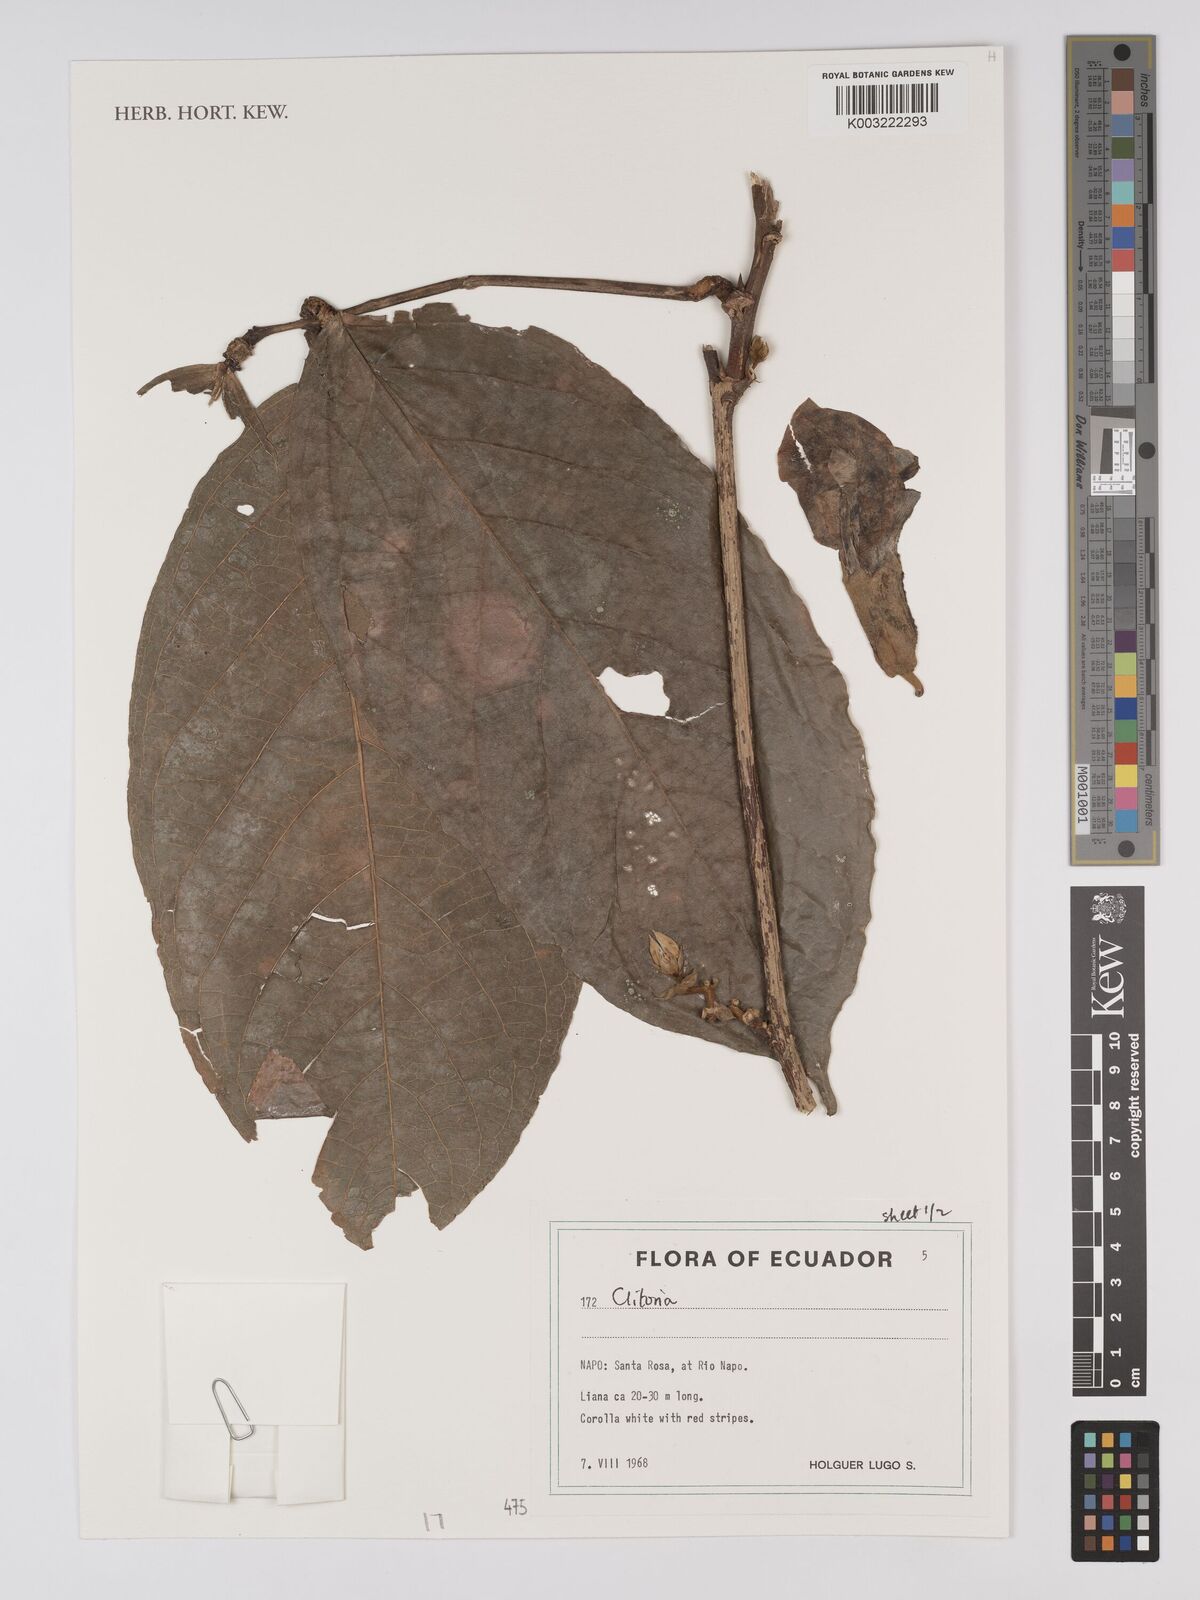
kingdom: Plantae
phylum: Tracheophyta
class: Magnoliopsida
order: Fabales
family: Fabaceae
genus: Clitoria
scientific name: Clitoria
